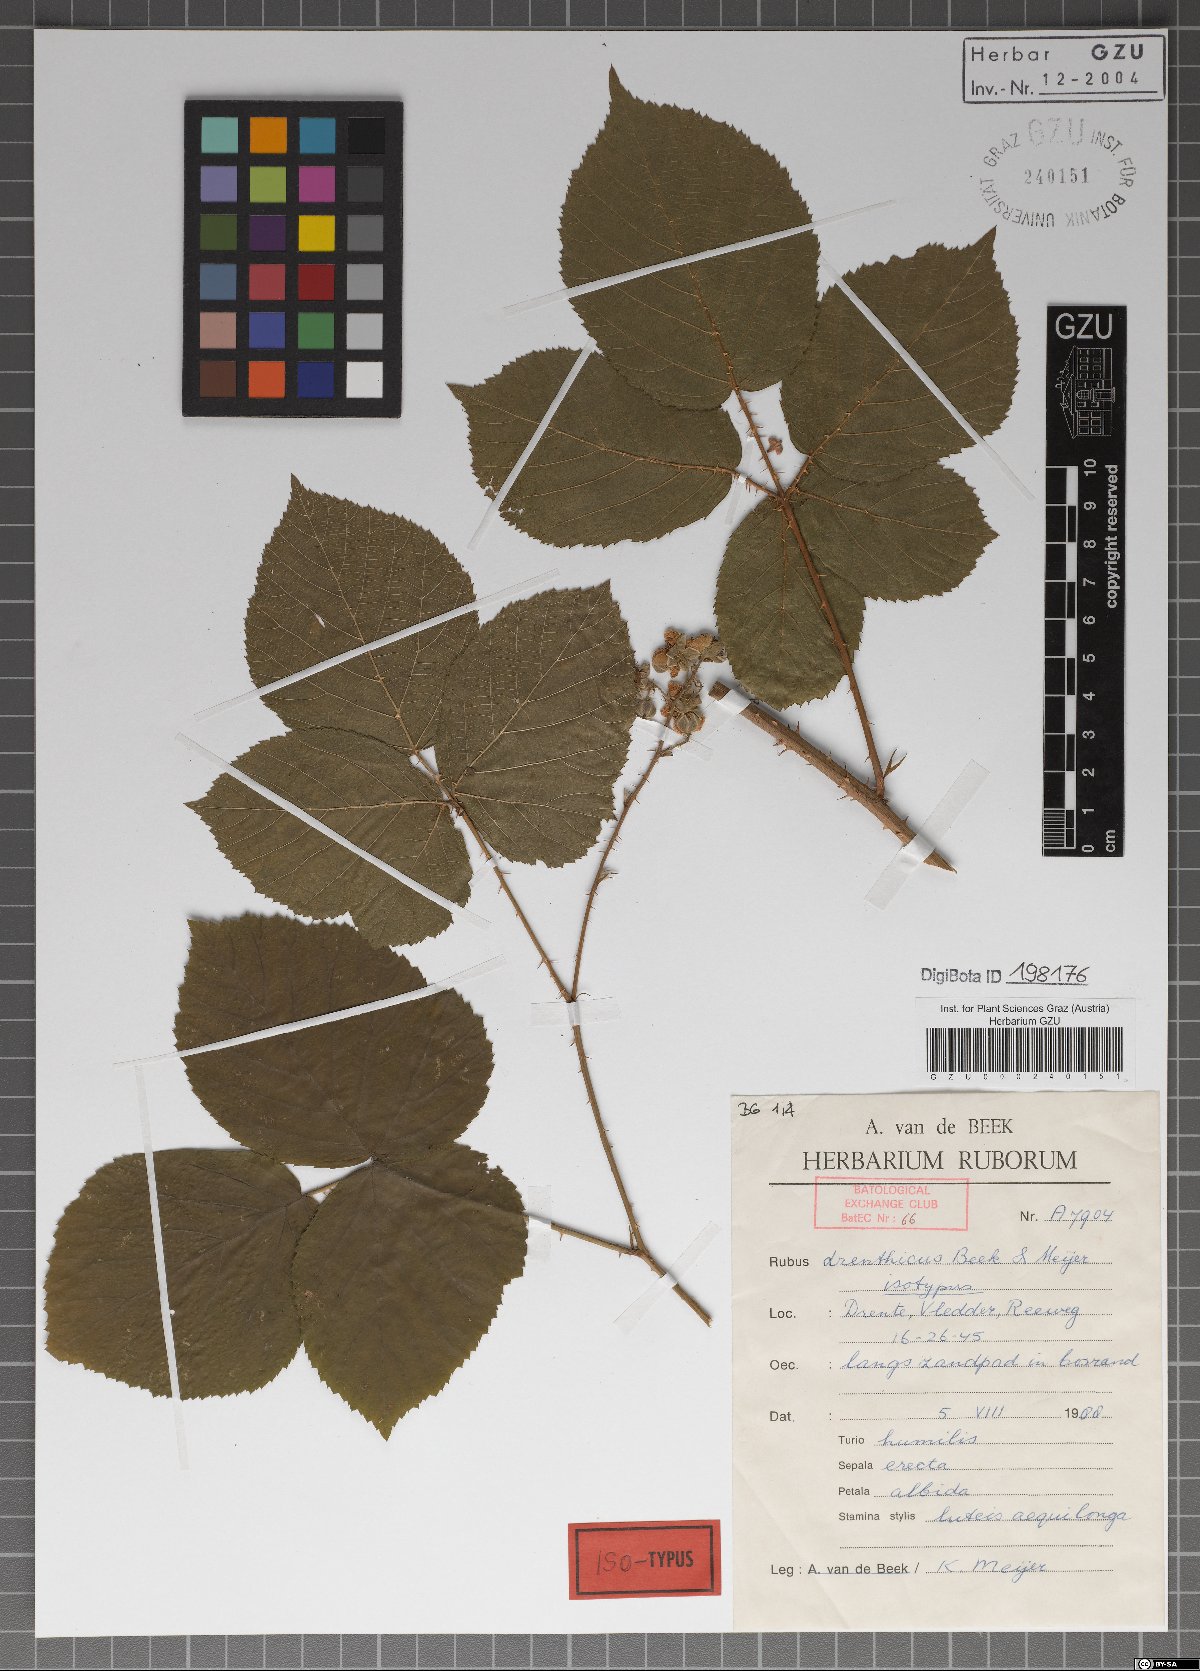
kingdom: Plantae
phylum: Tracheophyta
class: Magnoliopsida
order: Rosales
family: Rosaceae
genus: Rubus
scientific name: Rubus drenthicus
